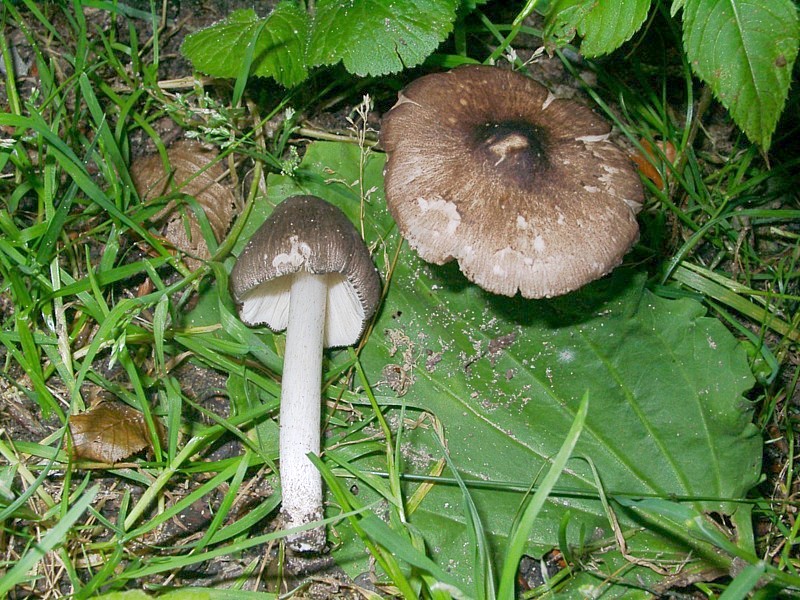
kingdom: Fungi
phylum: Basidiomycota
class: Agaricomycetes
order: Agaricales
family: Pluteaceae
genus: Pluteus
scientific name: Pluteus ephebeus
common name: Sooty shield
